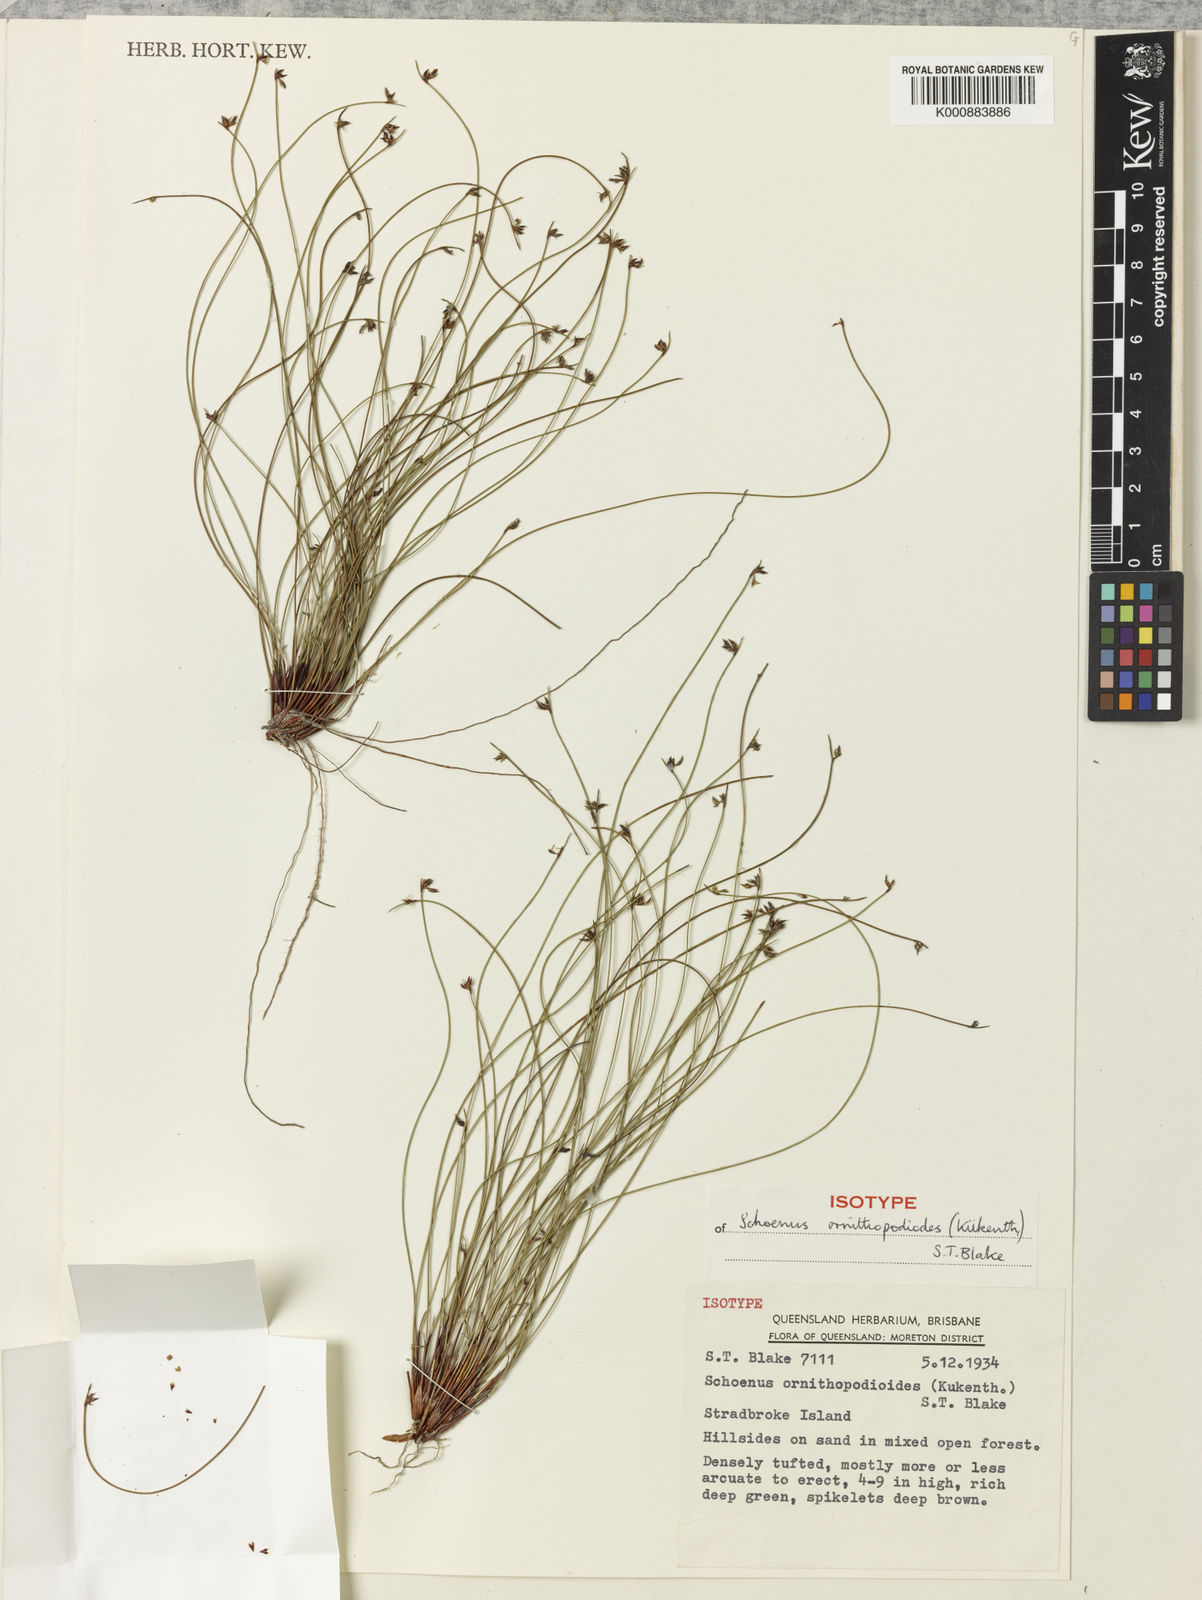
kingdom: Plantae
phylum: Tracheophyta
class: Liliopsida
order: Poales
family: Cyperaceae
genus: Schoenus
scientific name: Schoenus
